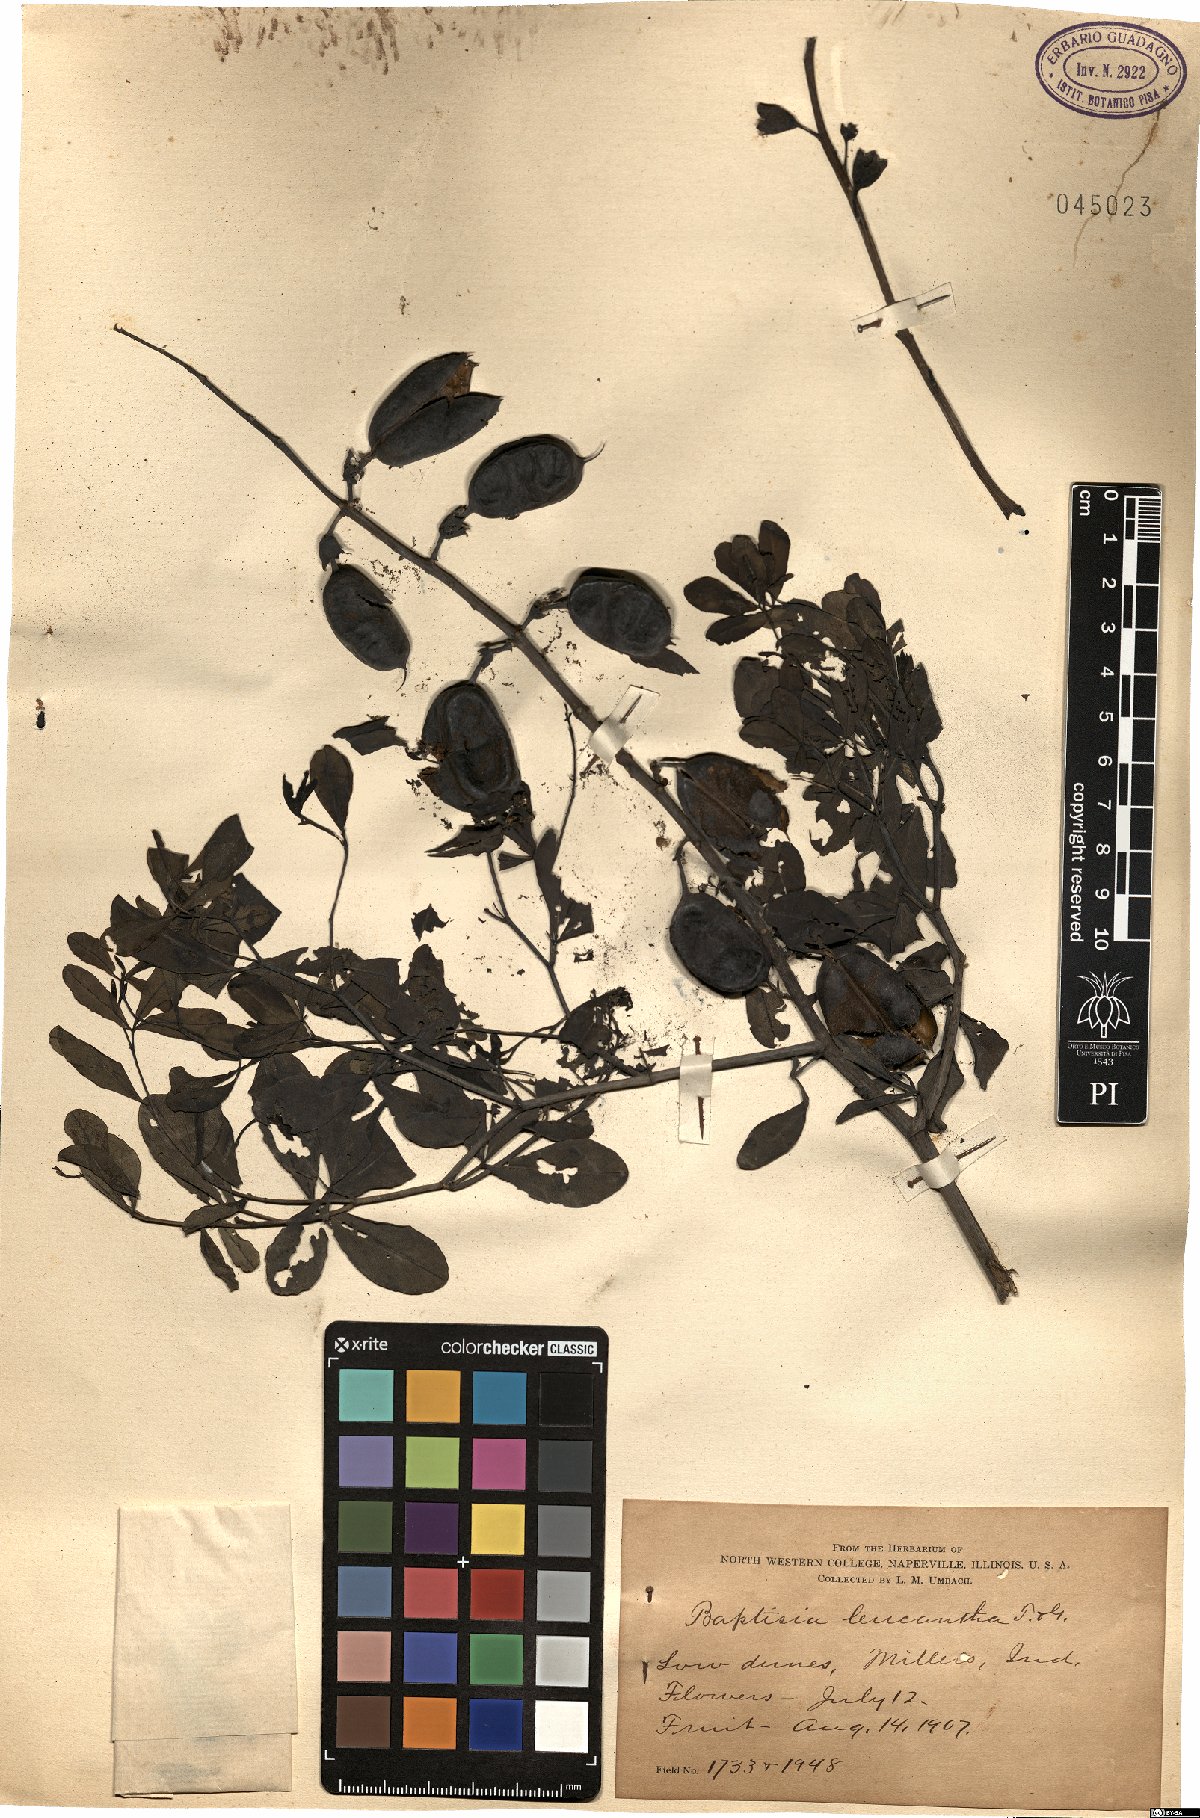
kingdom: Plantae
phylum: Tracheophyta
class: Magnoliopsida
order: Fabales
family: Fabaceae
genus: Baptisia
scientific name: Baptisia alba
